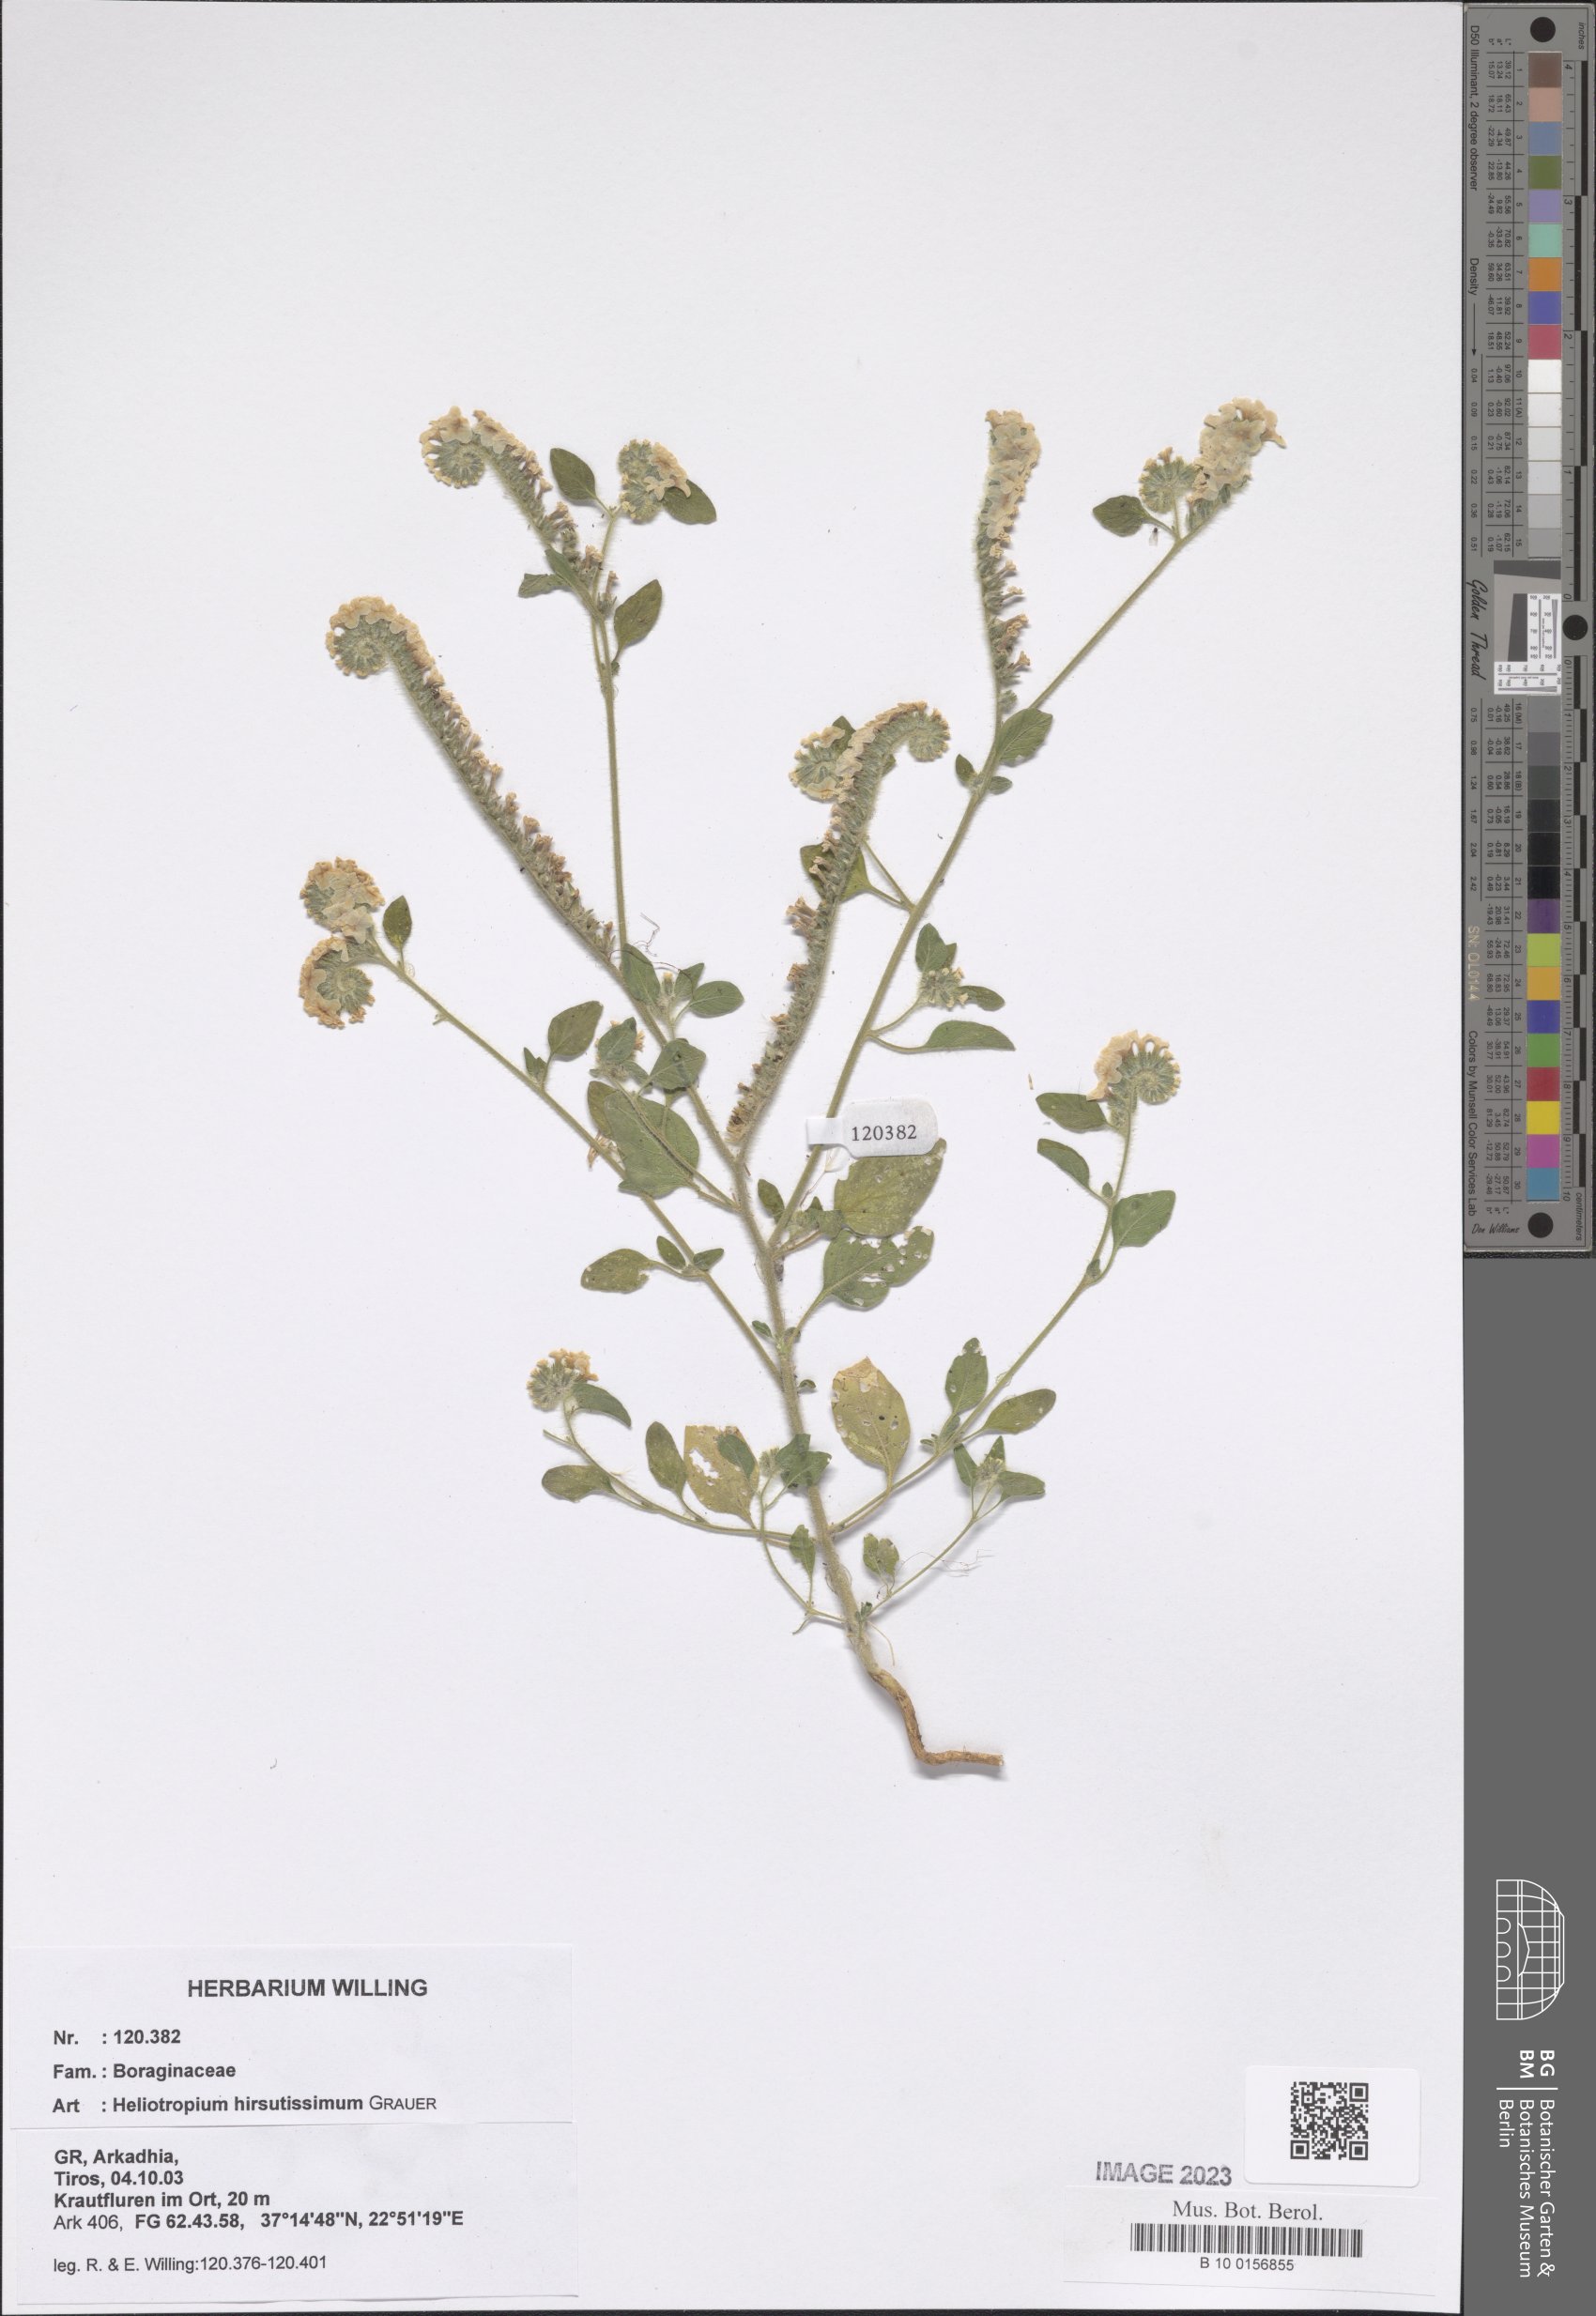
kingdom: Plantae
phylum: Tracheophyta
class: Magnoliopsida
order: Boraginales
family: Heliotropiaceae
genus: Heliotropium
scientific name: Heliotropium hirsutissimum
